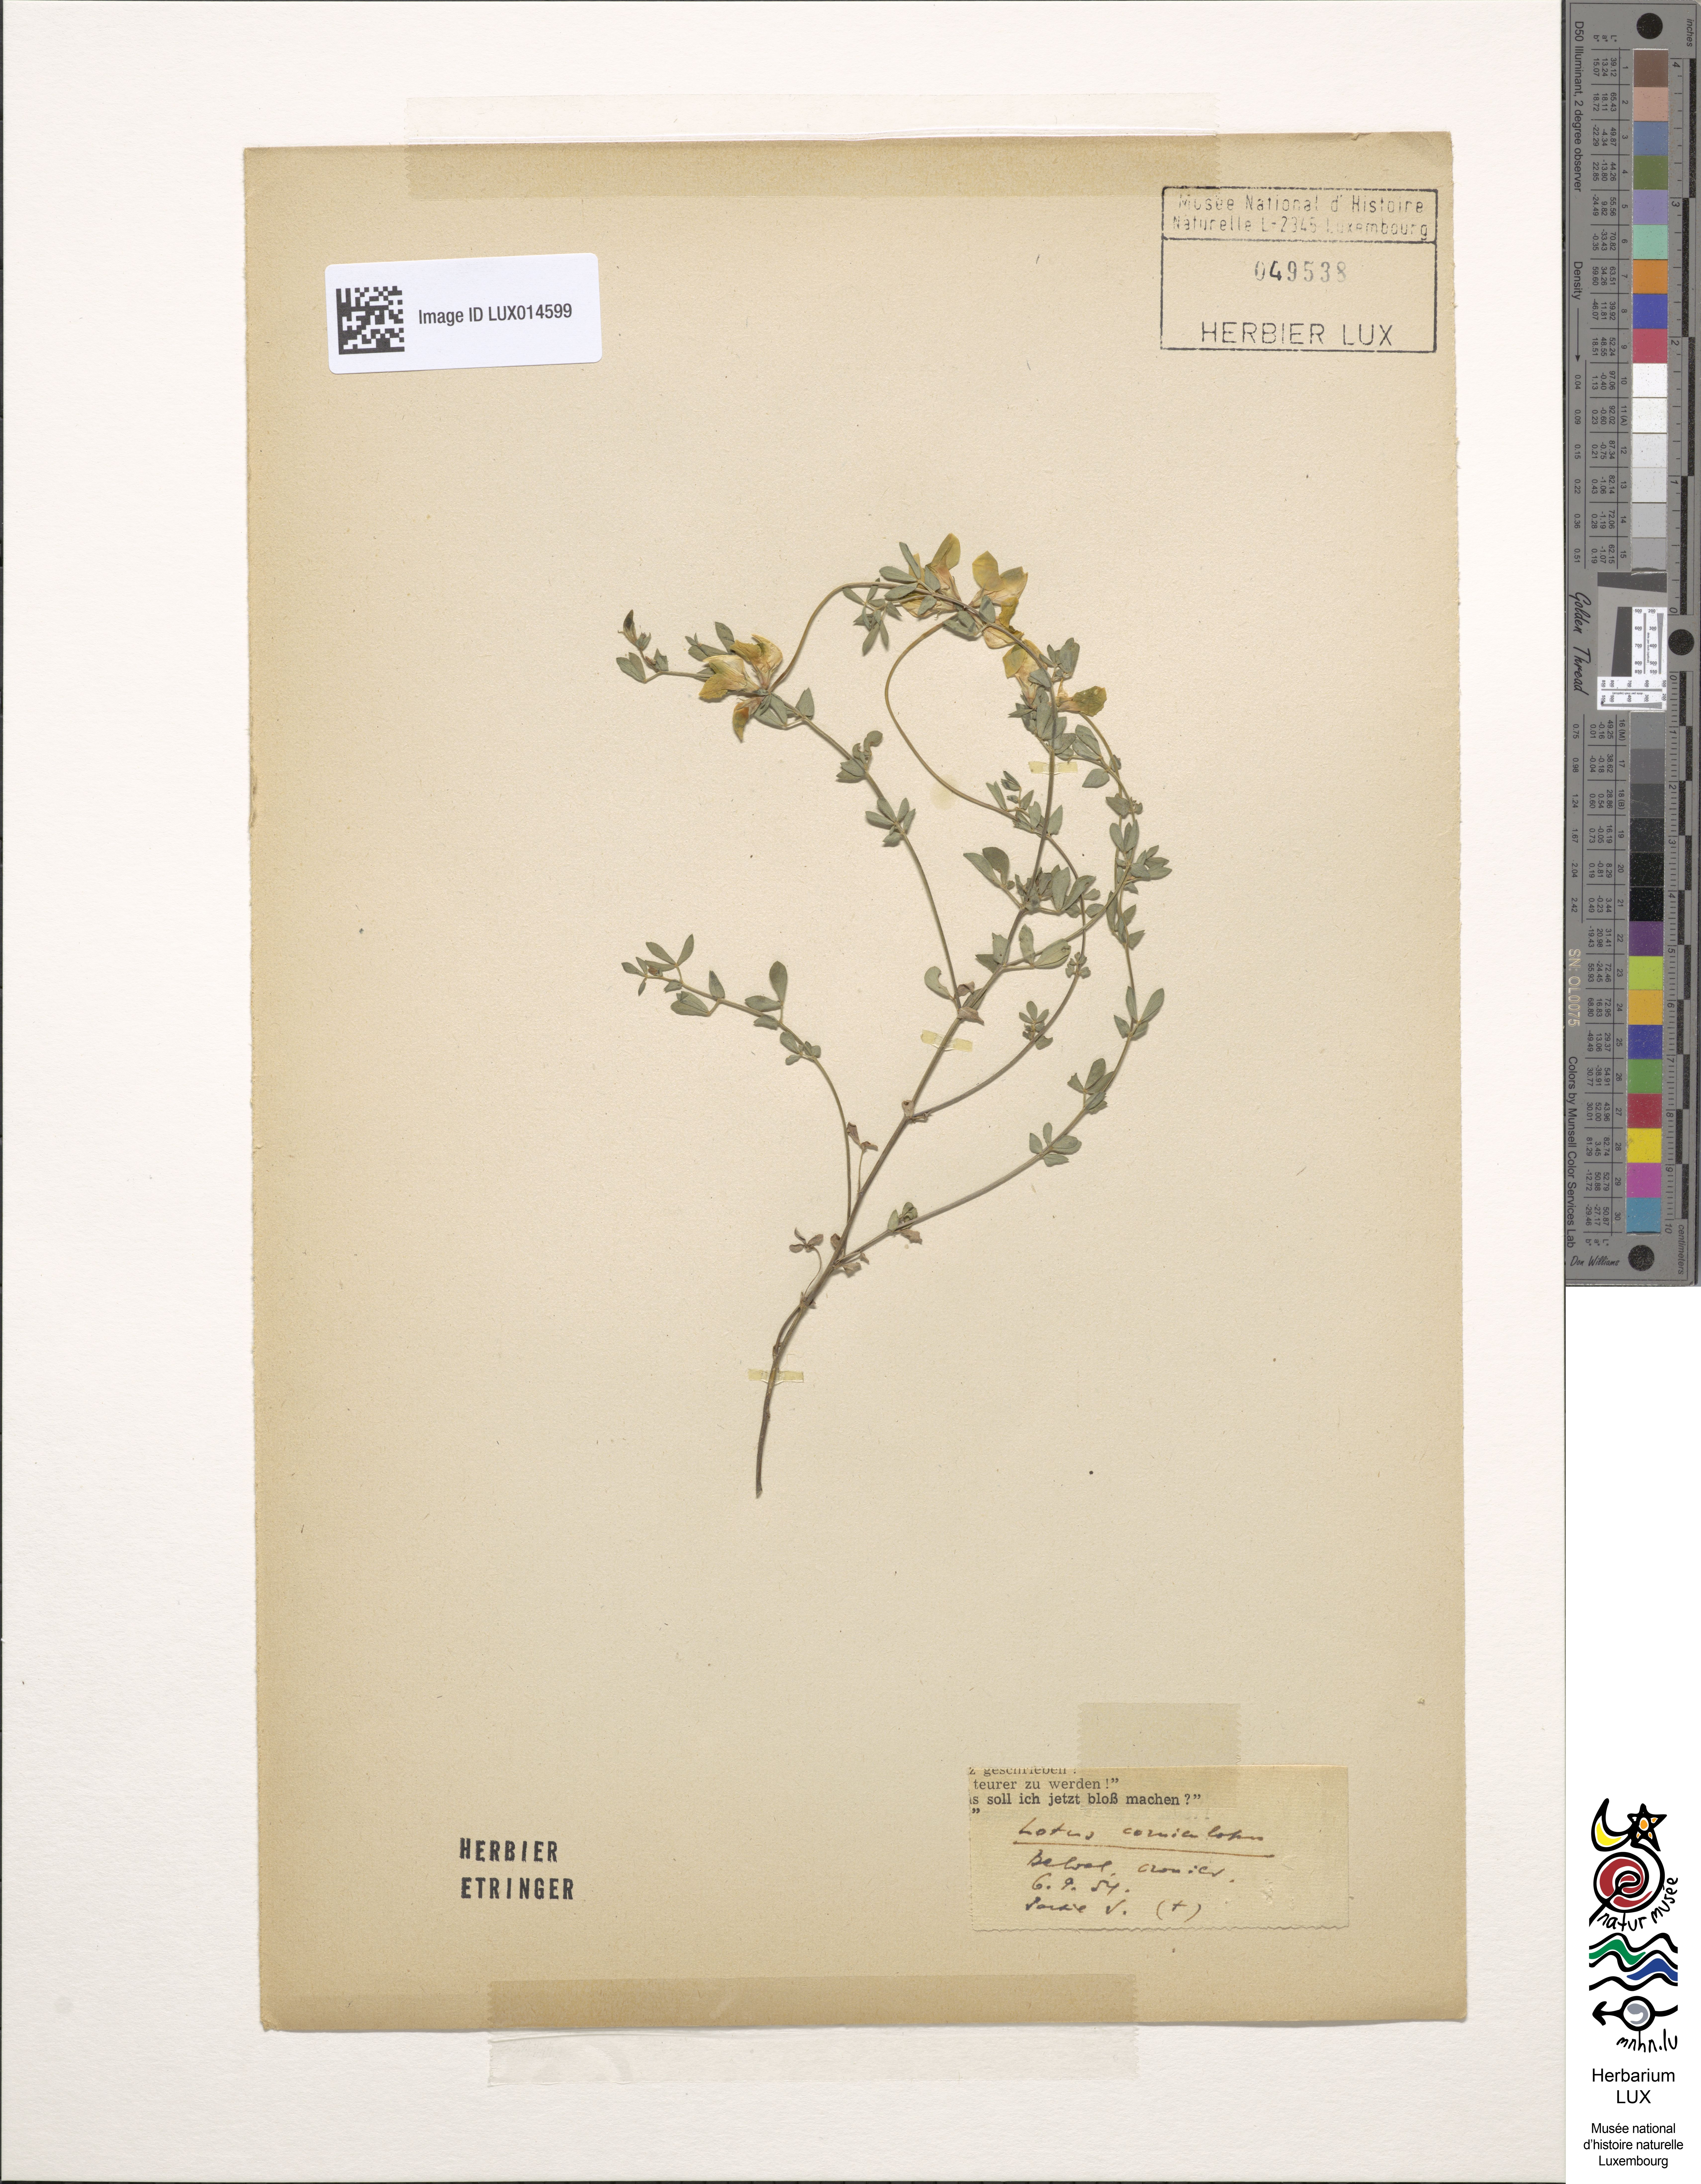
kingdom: Plantae
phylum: Tracheophyta
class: Magnoliopsida
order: Fabales
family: Fabaceae
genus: Lotus
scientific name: Lotus corniculatus
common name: Common bird's-foot-trefoil
